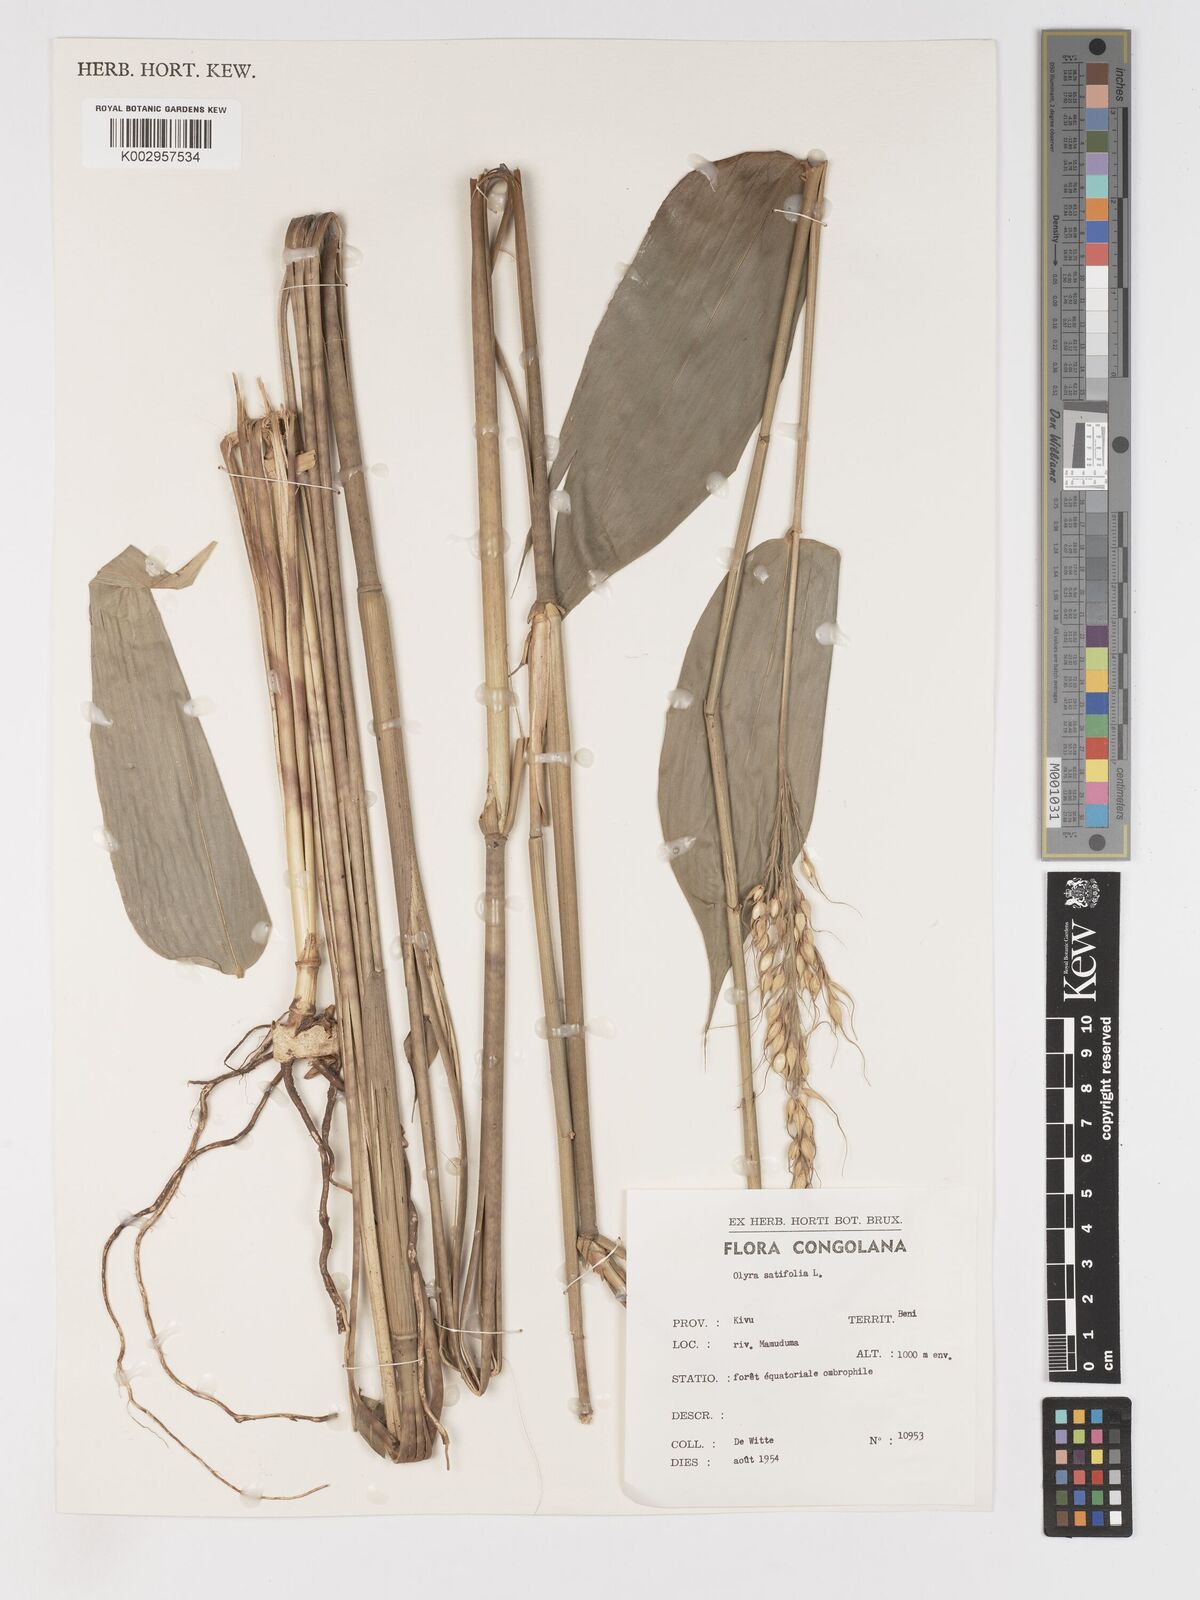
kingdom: Plantae
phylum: Tracheophyta
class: Liliopsida
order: Poales
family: Poaceae
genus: Olyra
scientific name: Olyra latifolia
